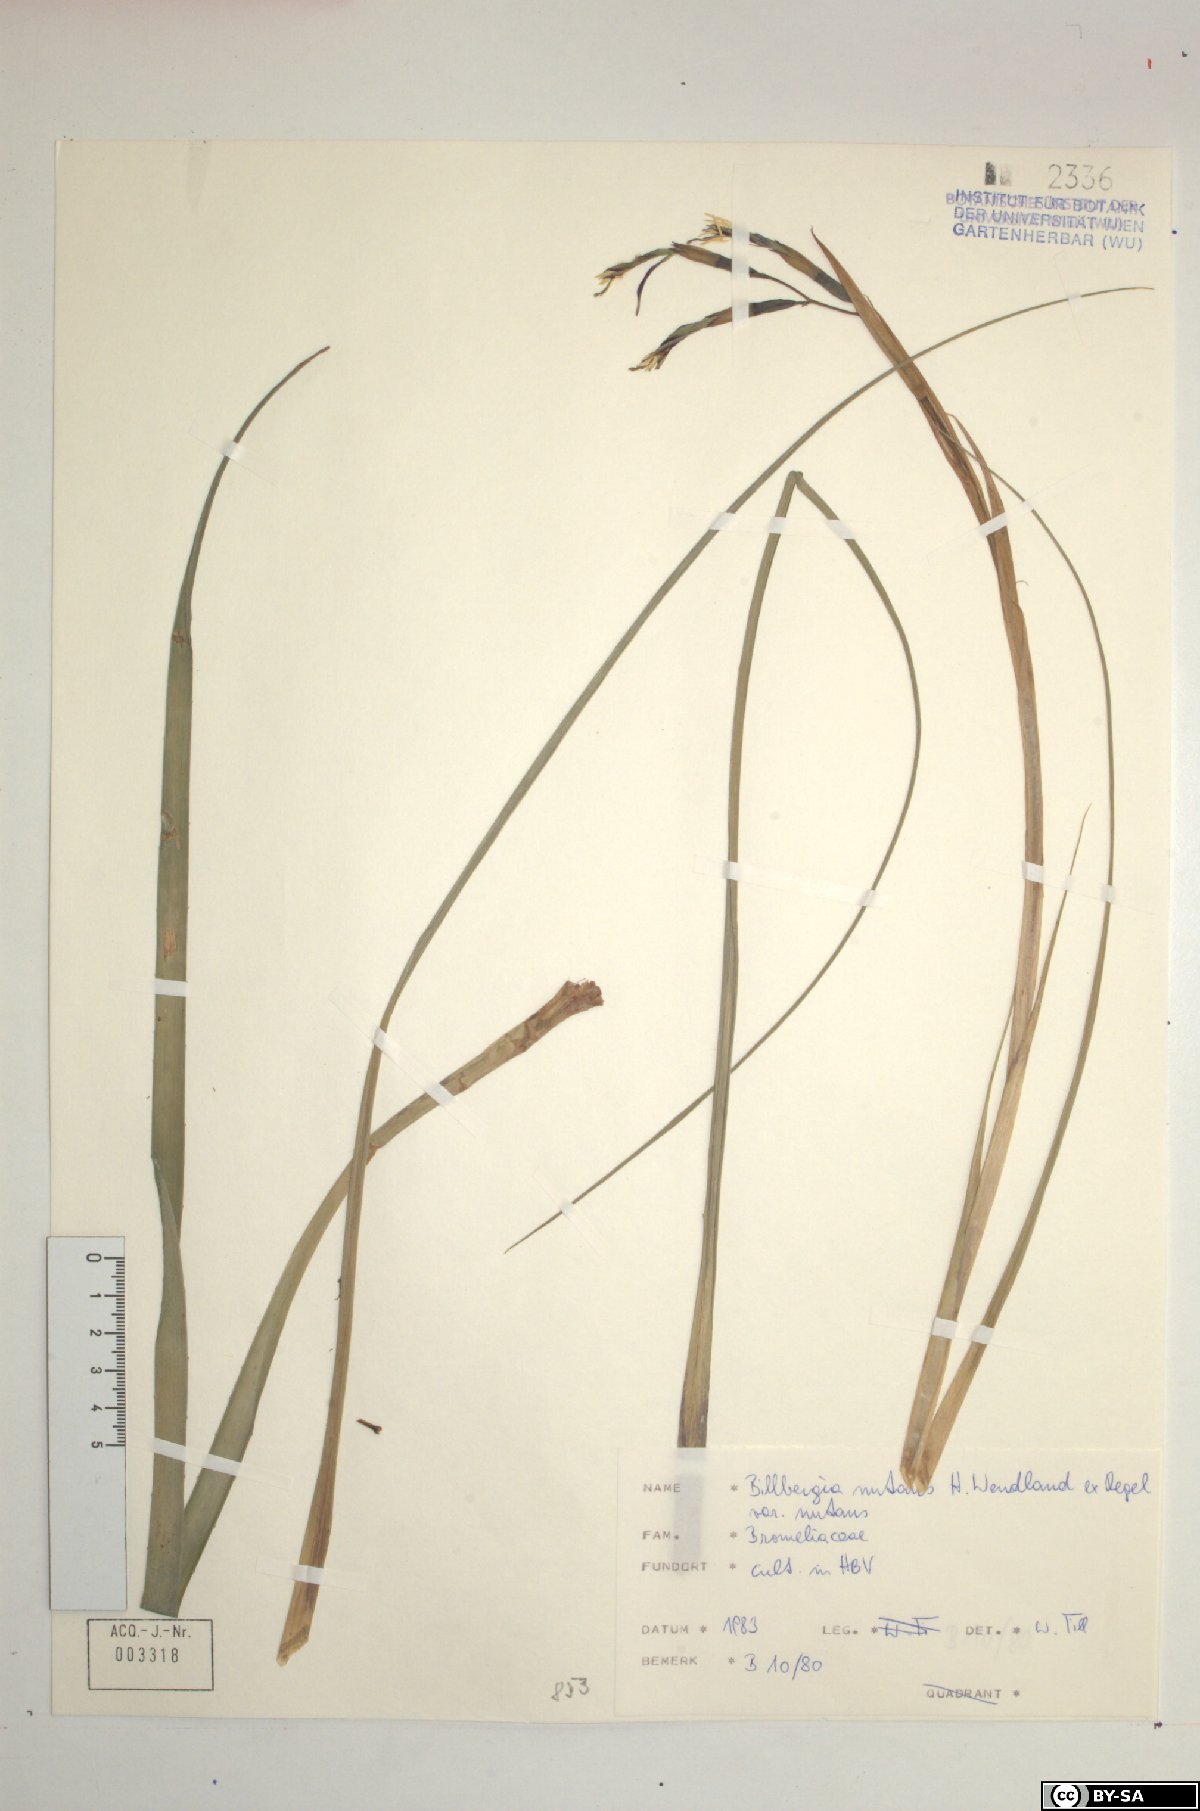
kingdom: Plantae
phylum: Tracheophyta
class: Liliopsida
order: Poales
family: Bromeliaceae
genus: Billbergia
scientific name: Billbergia nutans
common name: Friendship-plant
